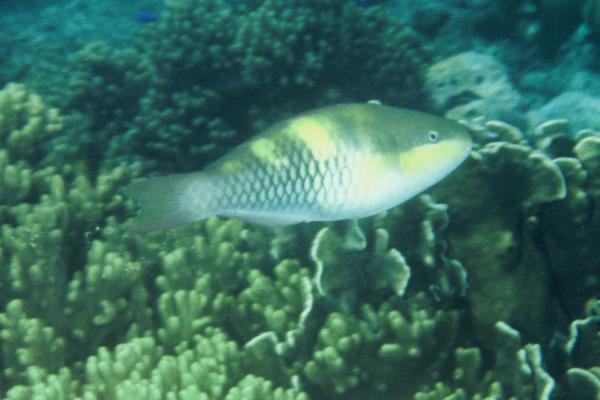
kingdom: Animalia
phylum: Chordata
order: Perciformes
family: Scaridae
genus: Scarus
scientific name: Scarus scaber
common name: Dusky-capped parrotfish
